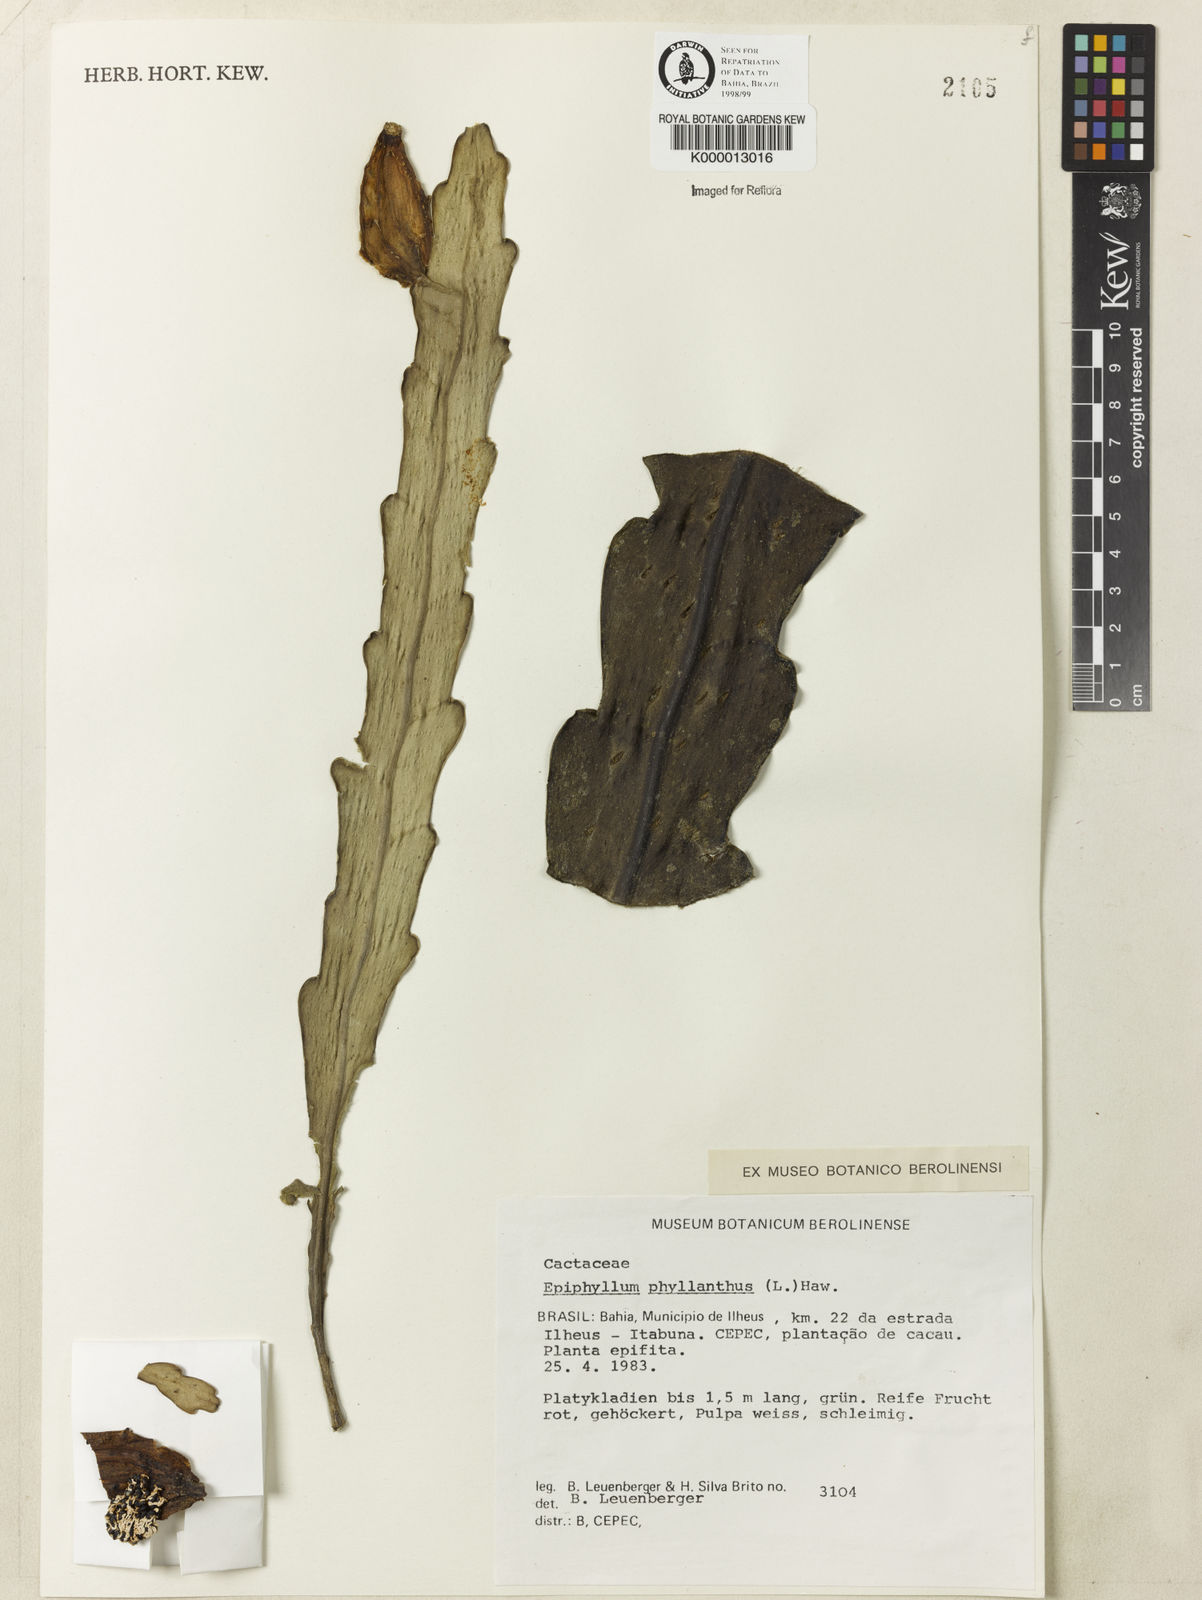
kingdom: Plantae
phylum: Tracheophyta
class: Magnoliopsida
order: Caryophyllales
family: Cactaceae
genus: Epiphyllum
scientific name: Epiphyllum phyllanthus
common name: Climbing cactus
